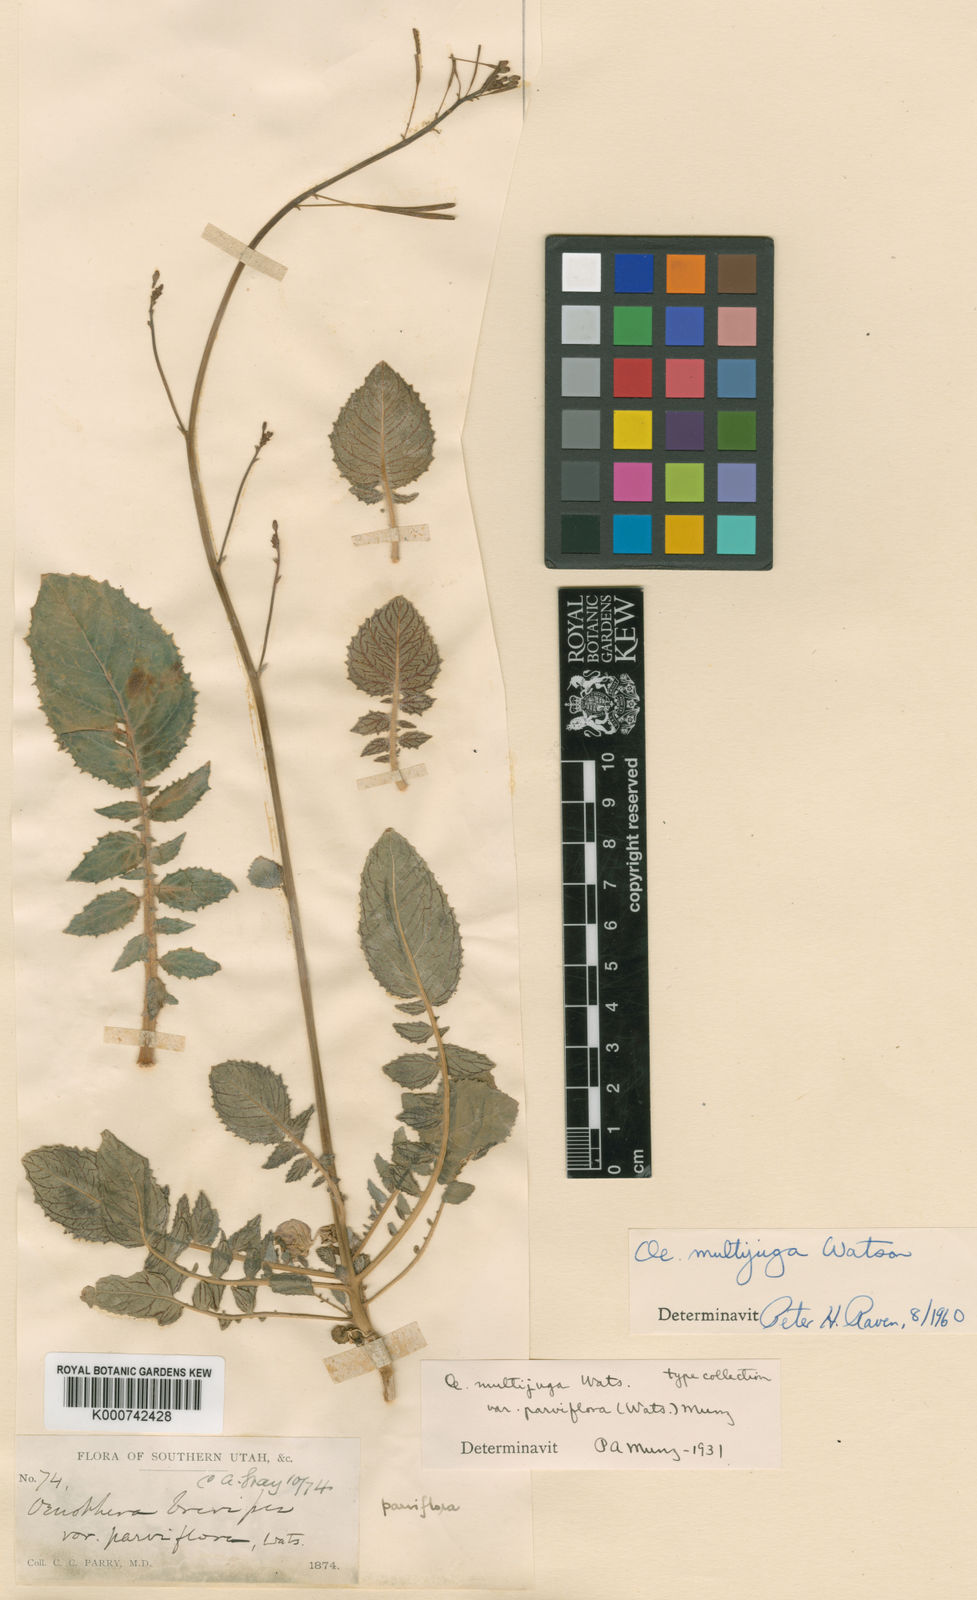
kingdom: Plantae
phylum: Tracheophyta
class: Magnoliopsida
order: Myrtales
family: Onagraceae
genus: Chylismia
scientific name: Chylismia multijuga
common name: Froststem suncup
